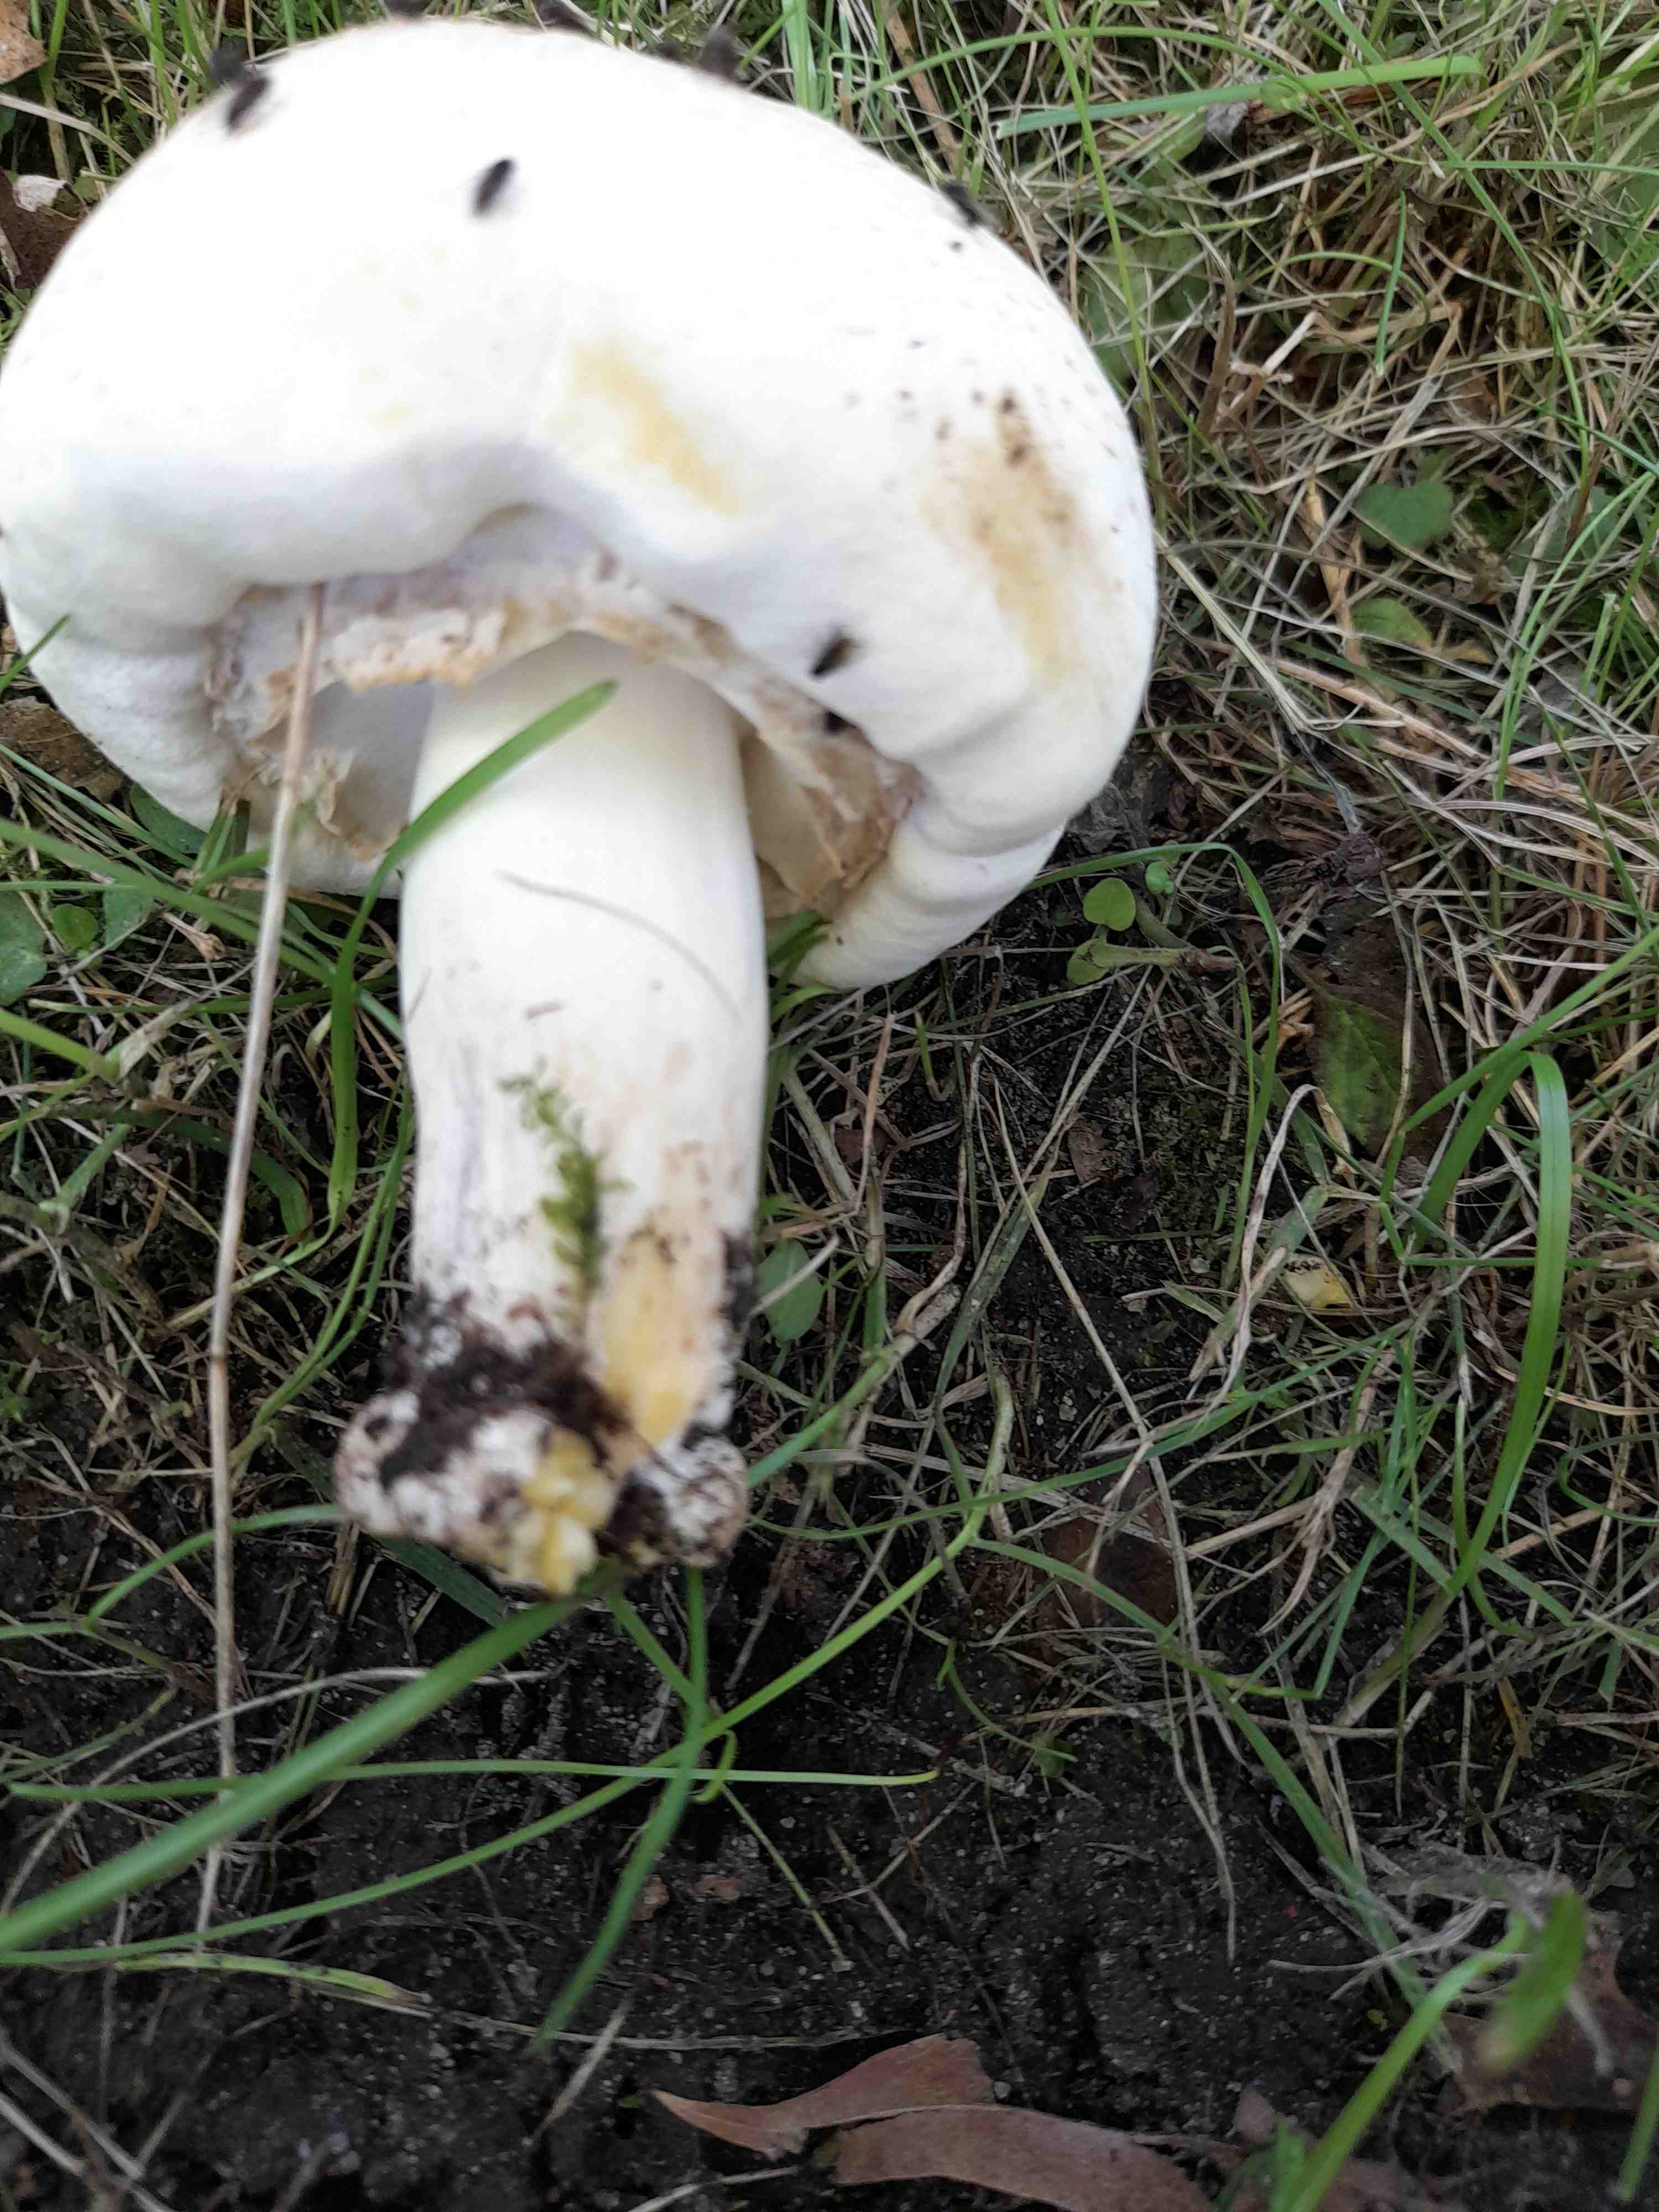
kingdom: Fungi
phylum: Basidiomycota
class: Agaricomycetes
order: Agaricales
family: Agaricaceae
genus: Agaricus
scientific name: Agaricus xanthodermus
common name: karbol-champignon
